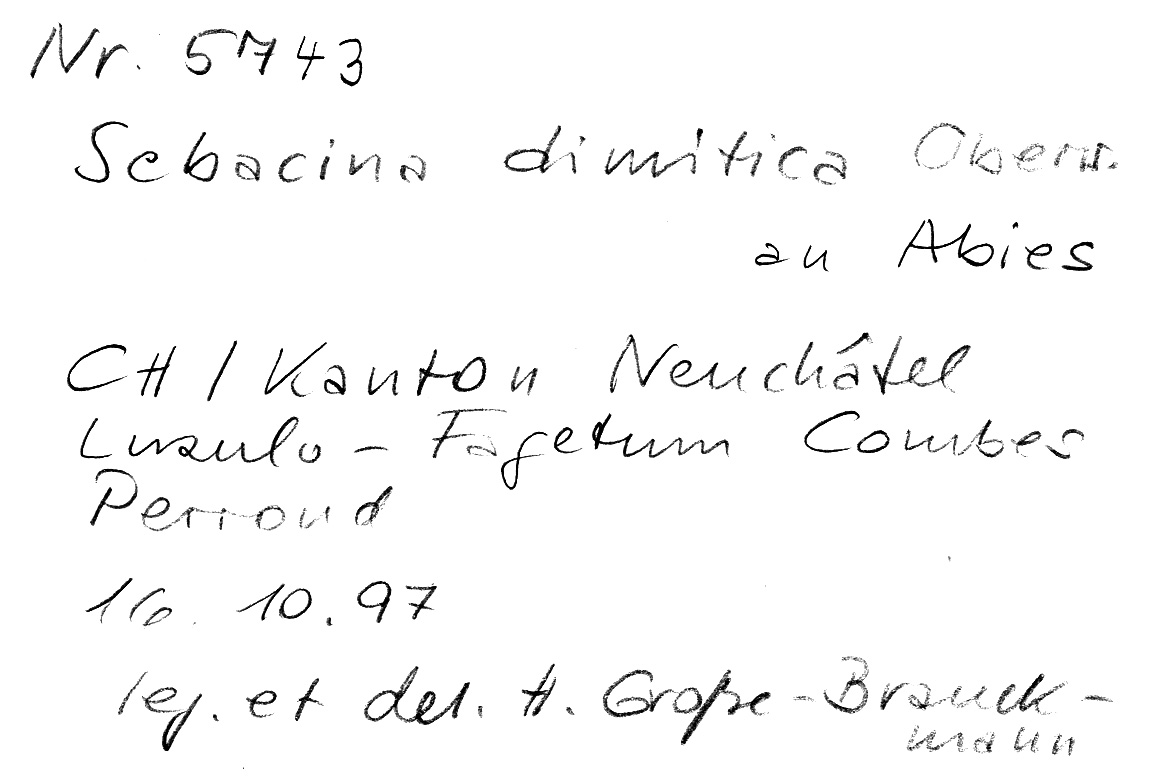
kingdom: Plantae
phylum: Tracheophyta
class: Pinopsida
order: Pinales
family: Pinaceae
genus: Abies
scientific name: Abies
